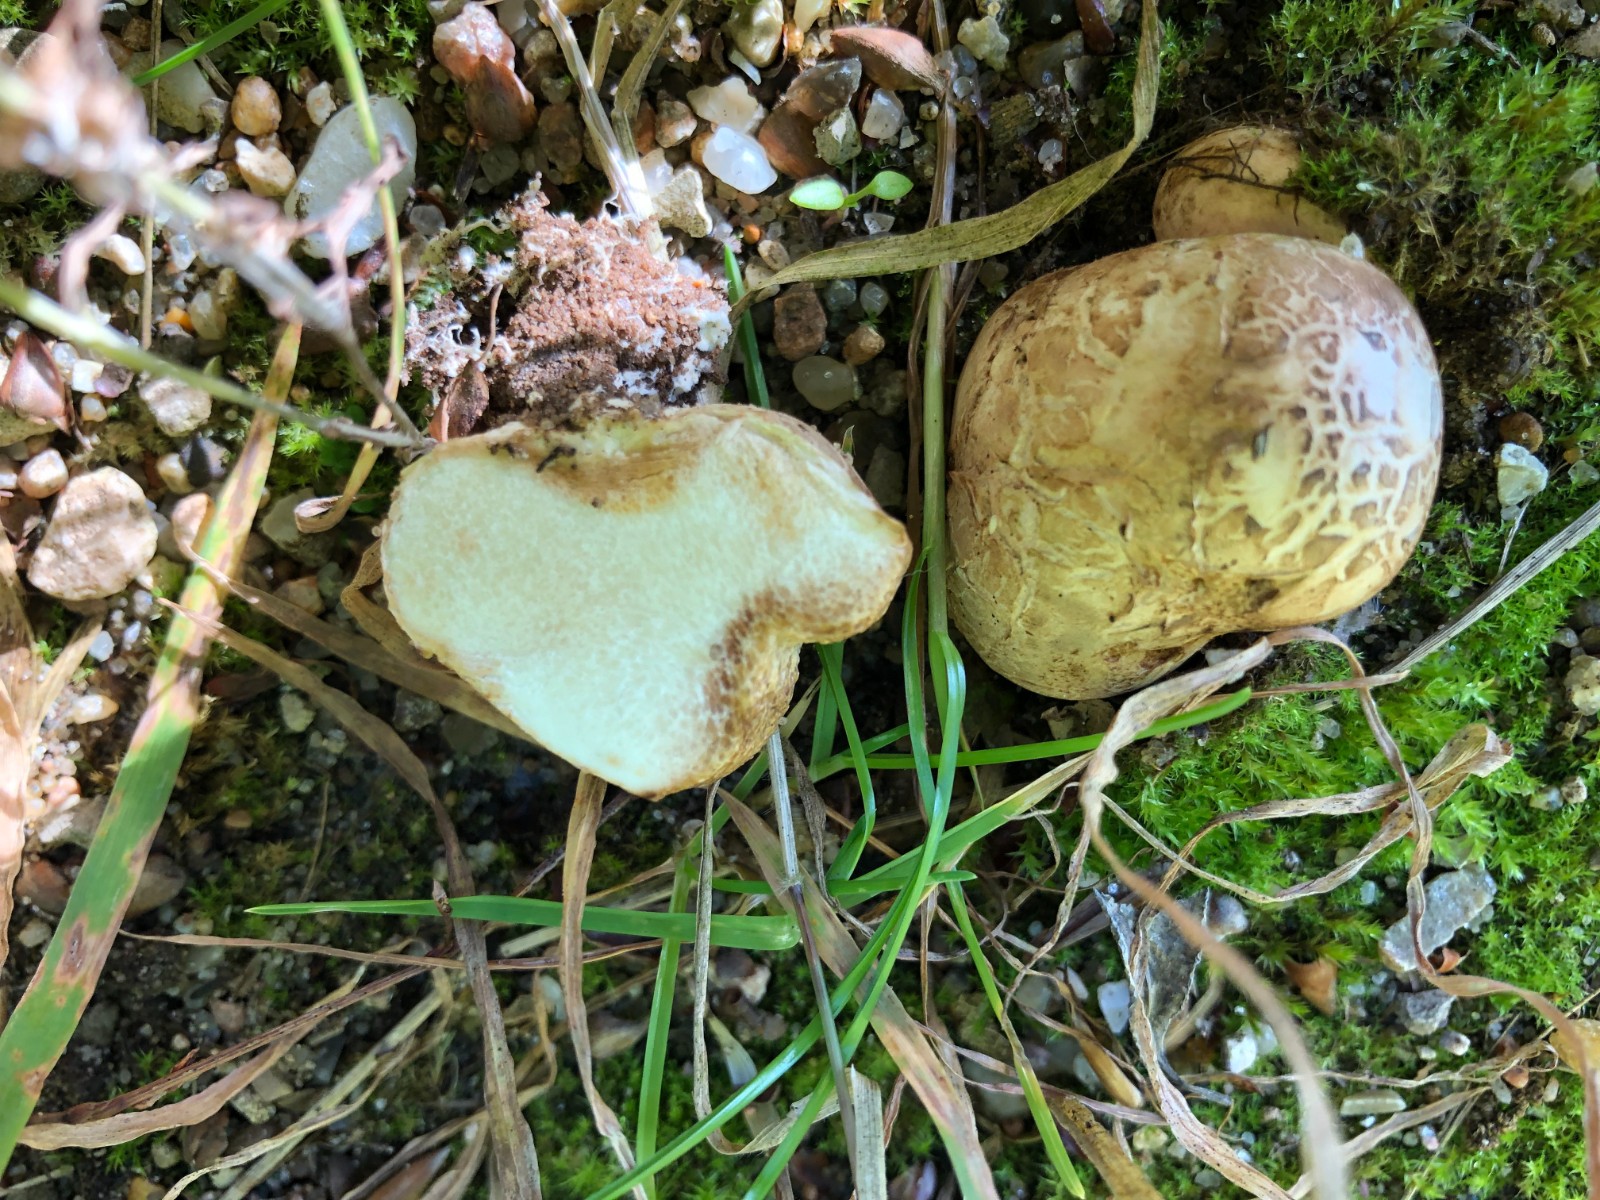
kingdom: Fungi
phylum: Basidiomycota
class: Agaricomycetes
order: Boletales
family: Sclerodermataceae
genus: Scleroderma
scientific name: Scleroderma
